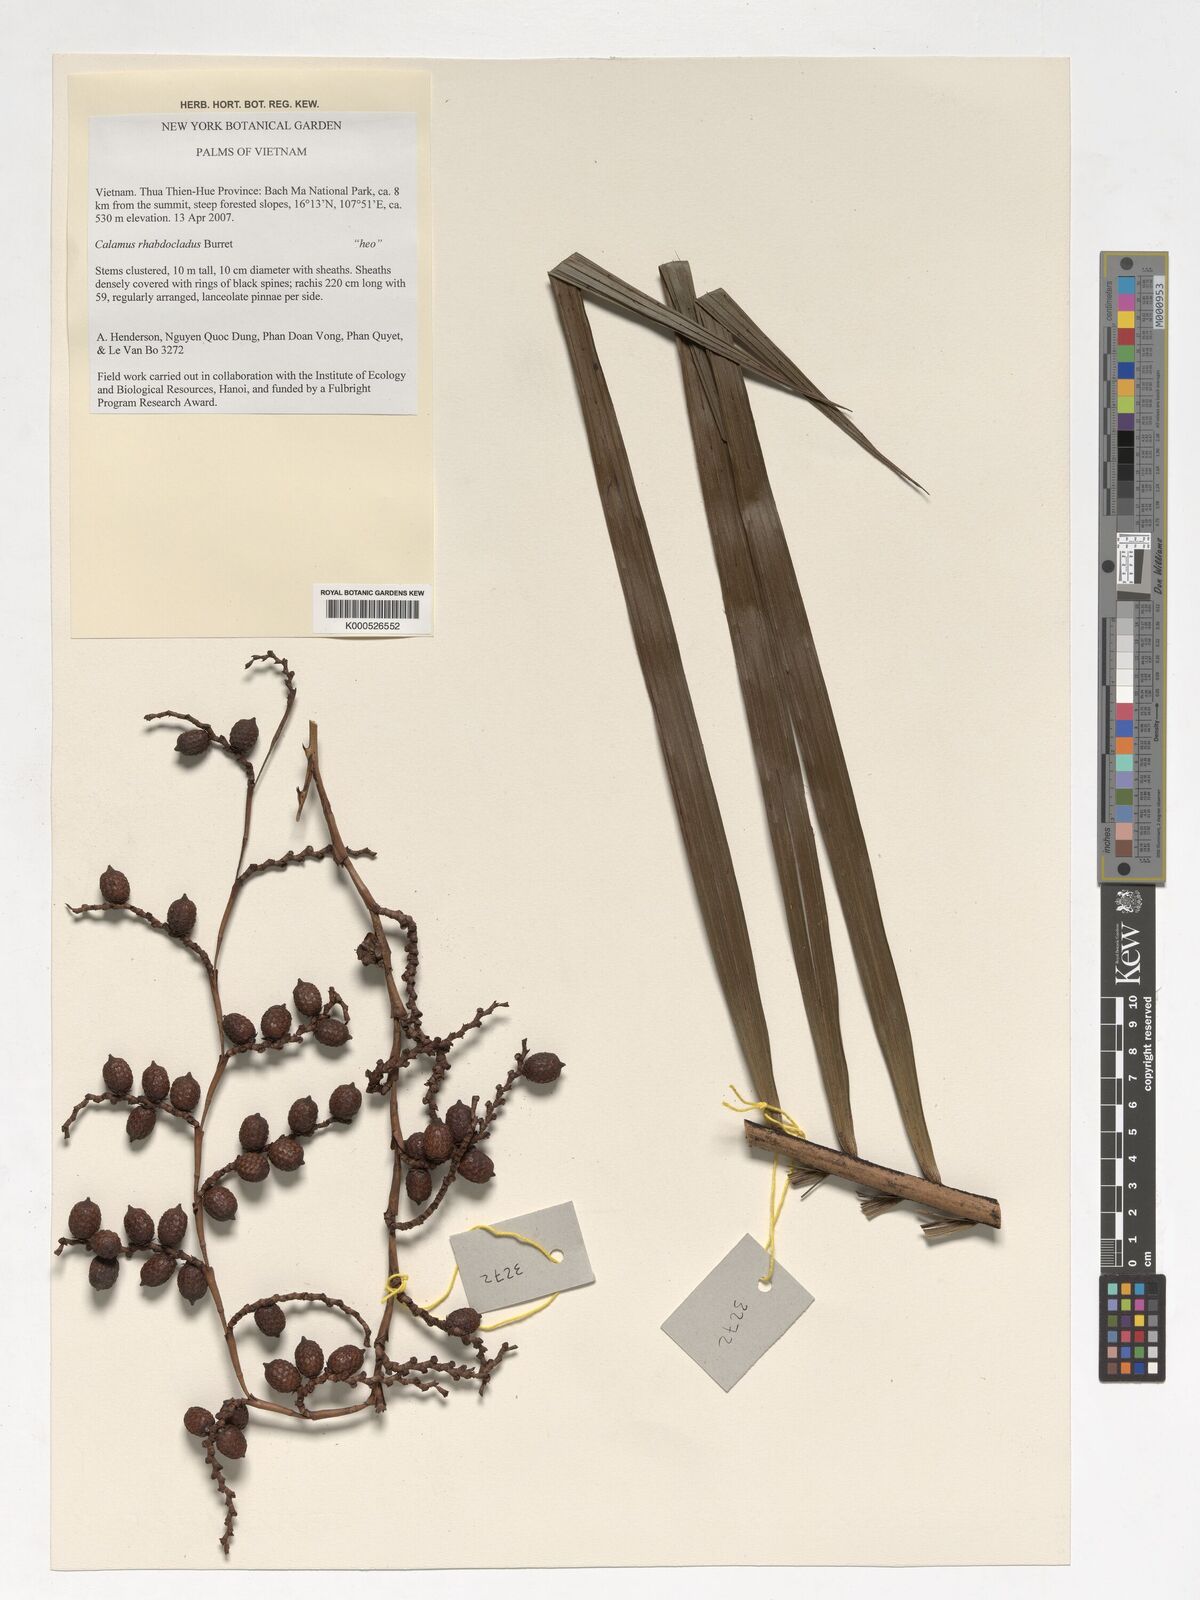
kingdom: Plantae
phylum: Tracheophyta
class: Liliopsida
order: Arecales
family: Arecaceae
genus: Calamus
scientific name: Calamus rhabdocladus
